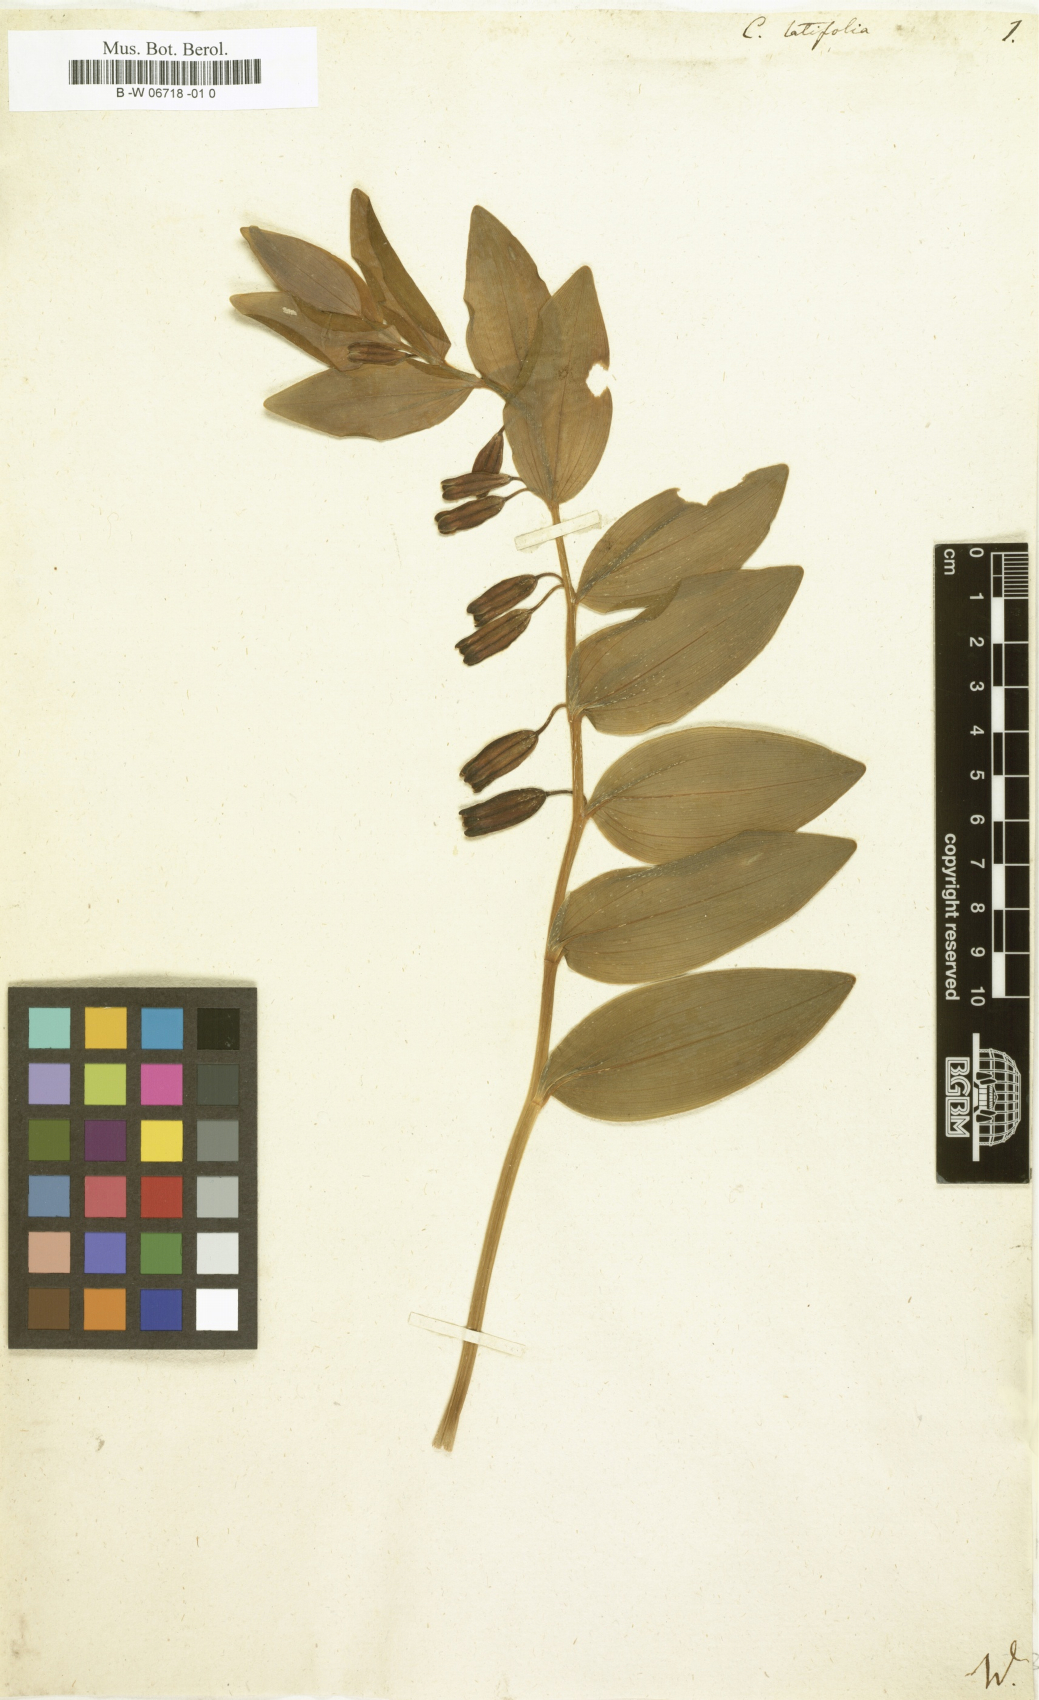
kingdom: Plantae
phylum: Tracheophyta
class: Liliopsida
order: Asparagales
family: Asparagaceae
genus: Convallaria
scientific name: Convallaria latifolia
